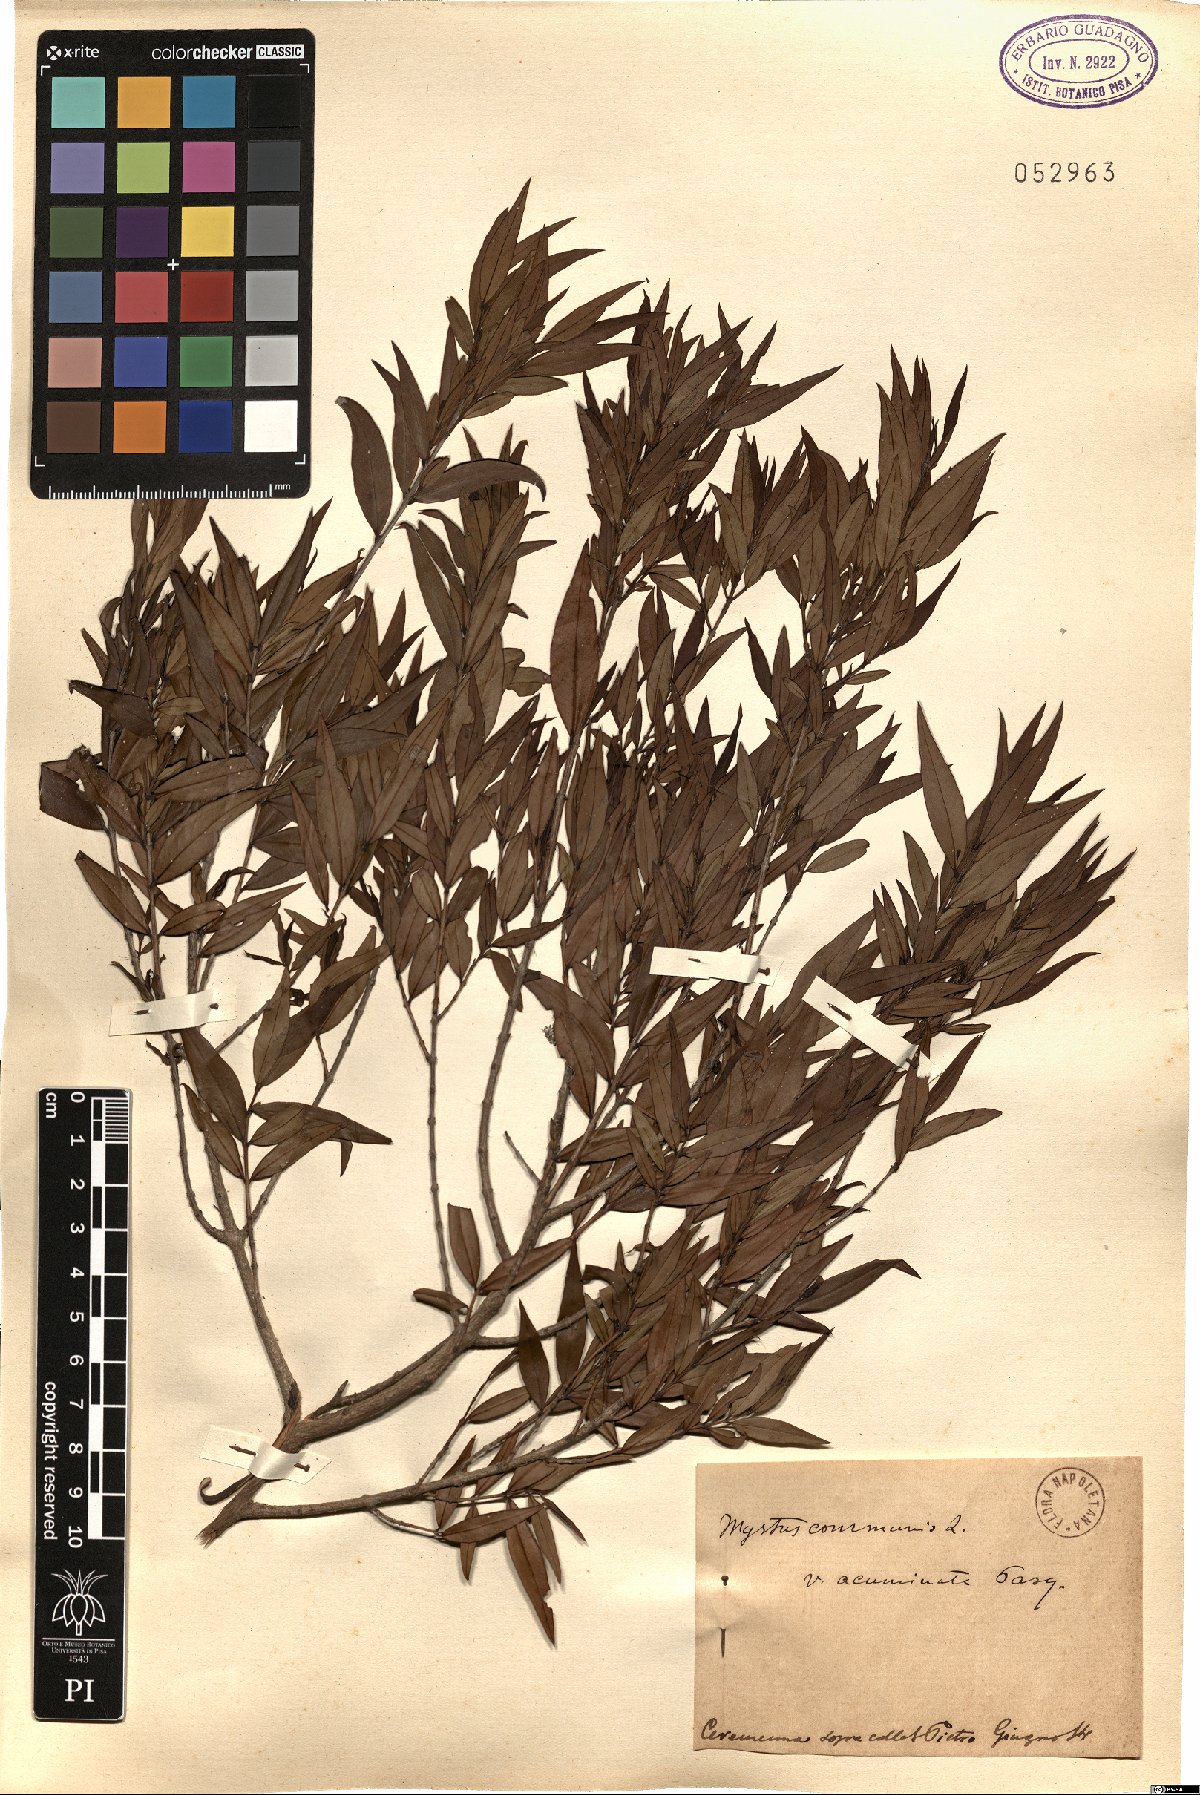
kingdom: Plantae
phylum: Tracheophyta
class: Magnoliopsida
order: Myrtales
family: Myrtaceae
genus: Myrtus
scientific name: Myrtus communis
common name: Myrtle
